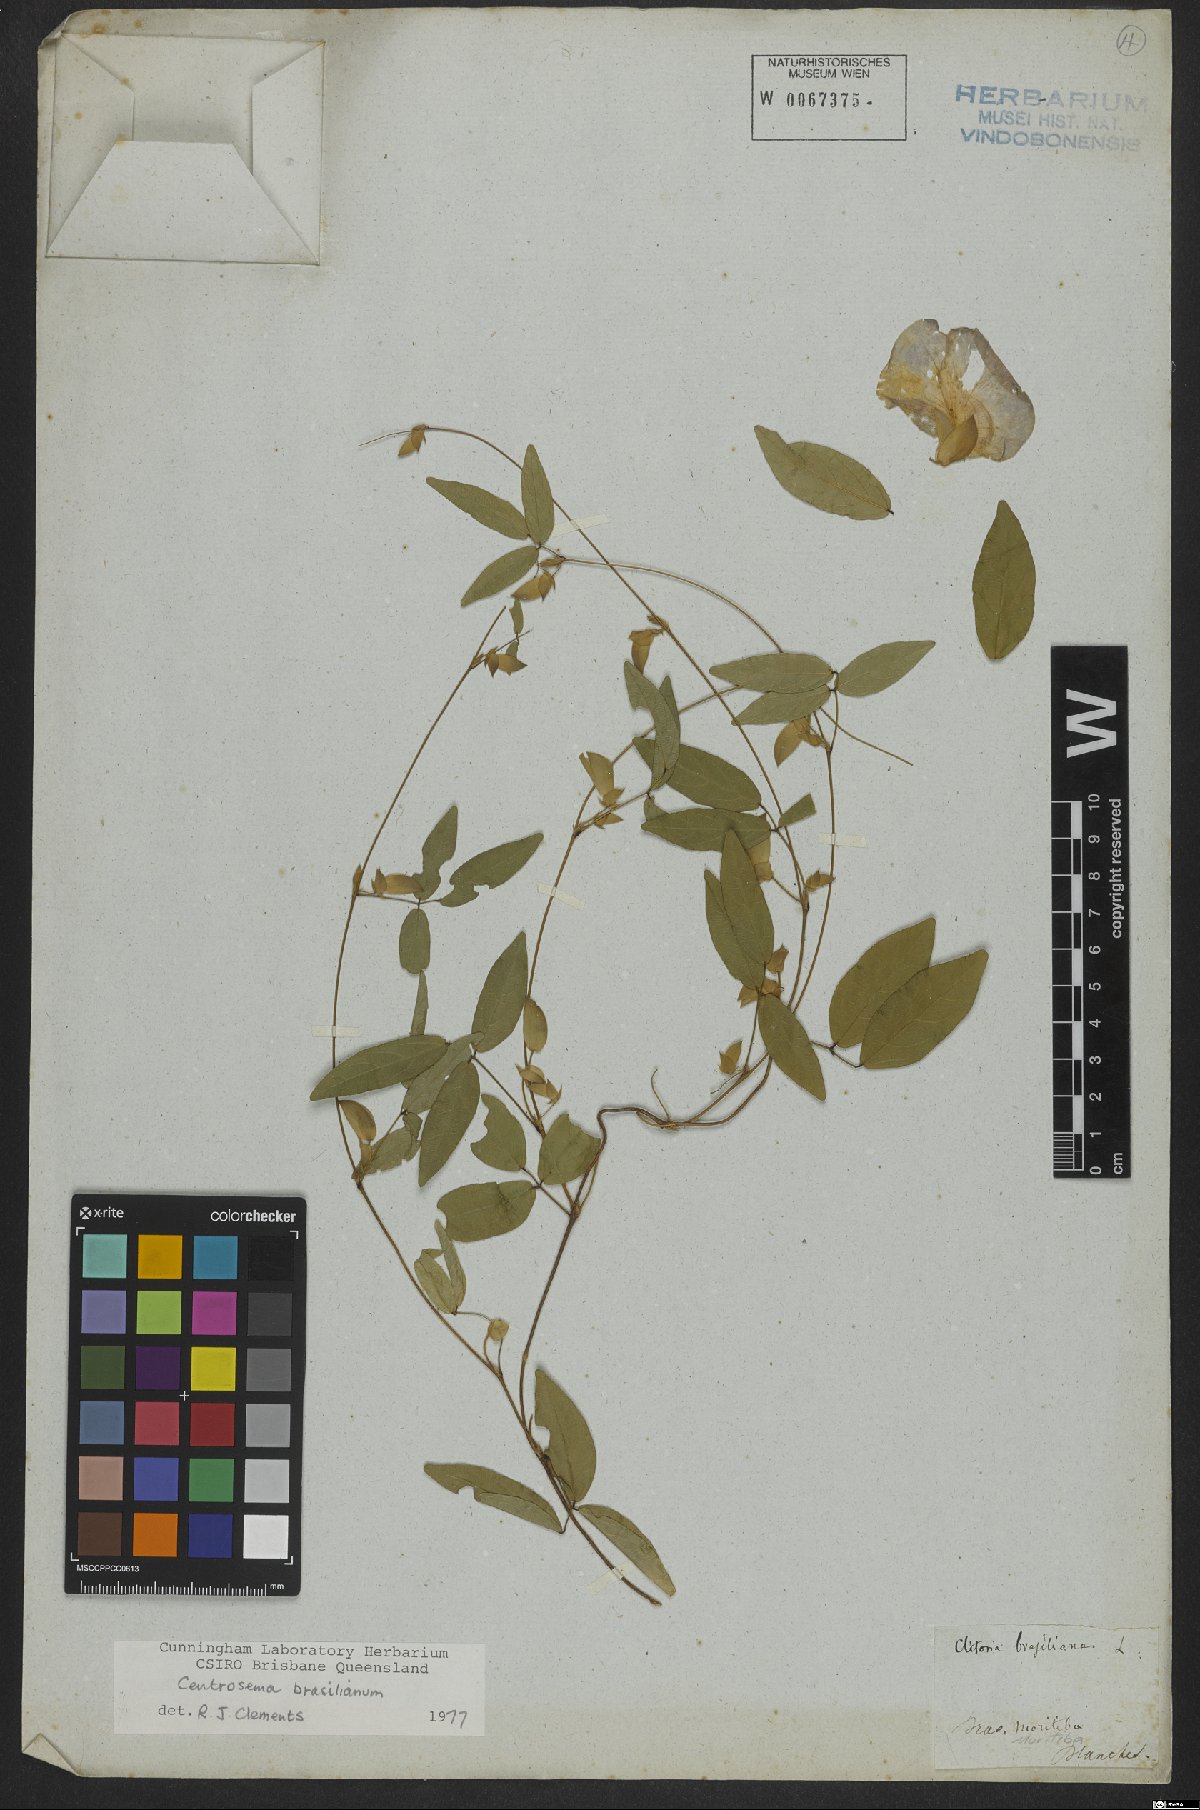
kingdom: Plantae
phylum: Tracheophyta
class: Magnoliopsida
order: Fabales
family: Fabaceae
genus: Centrosema
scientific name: Centrosema brasilianum
